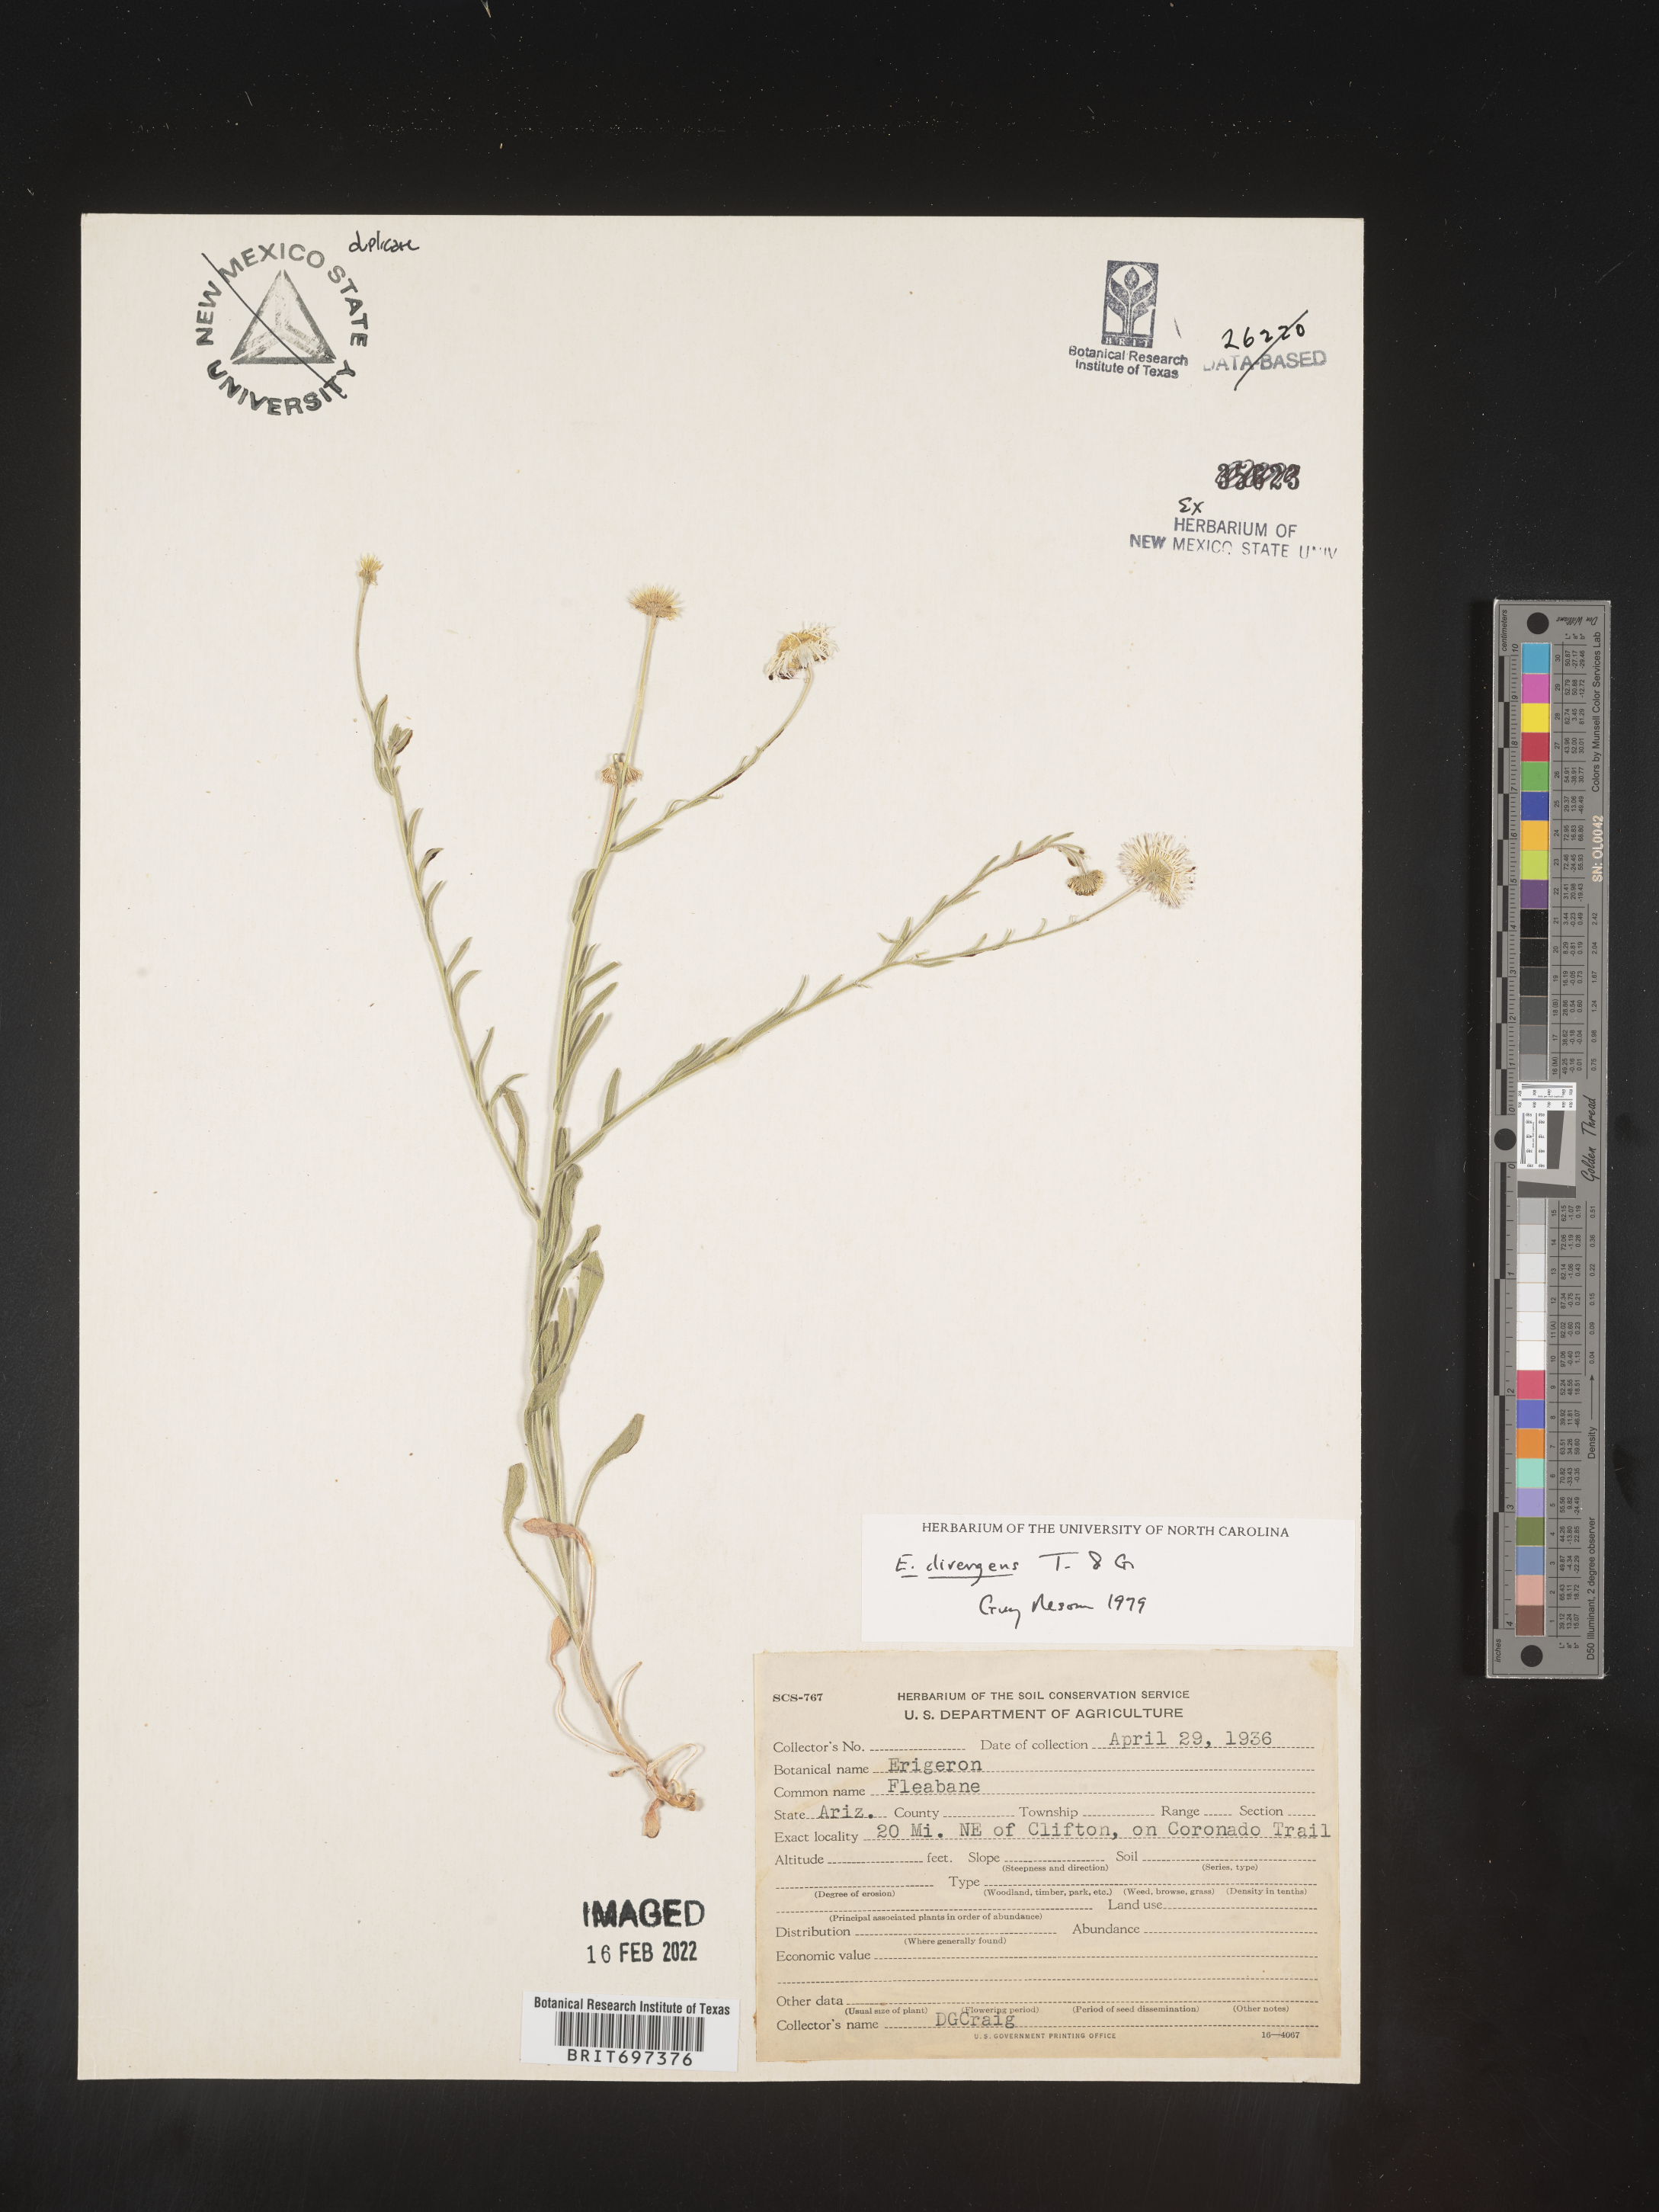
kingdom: Plantae
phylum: Tracheophyta
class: Magnoliopsida
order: Asterales
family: Asteraceae
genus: Erigeron
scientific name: Erigeron divergens
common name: Diffuse fleabane
